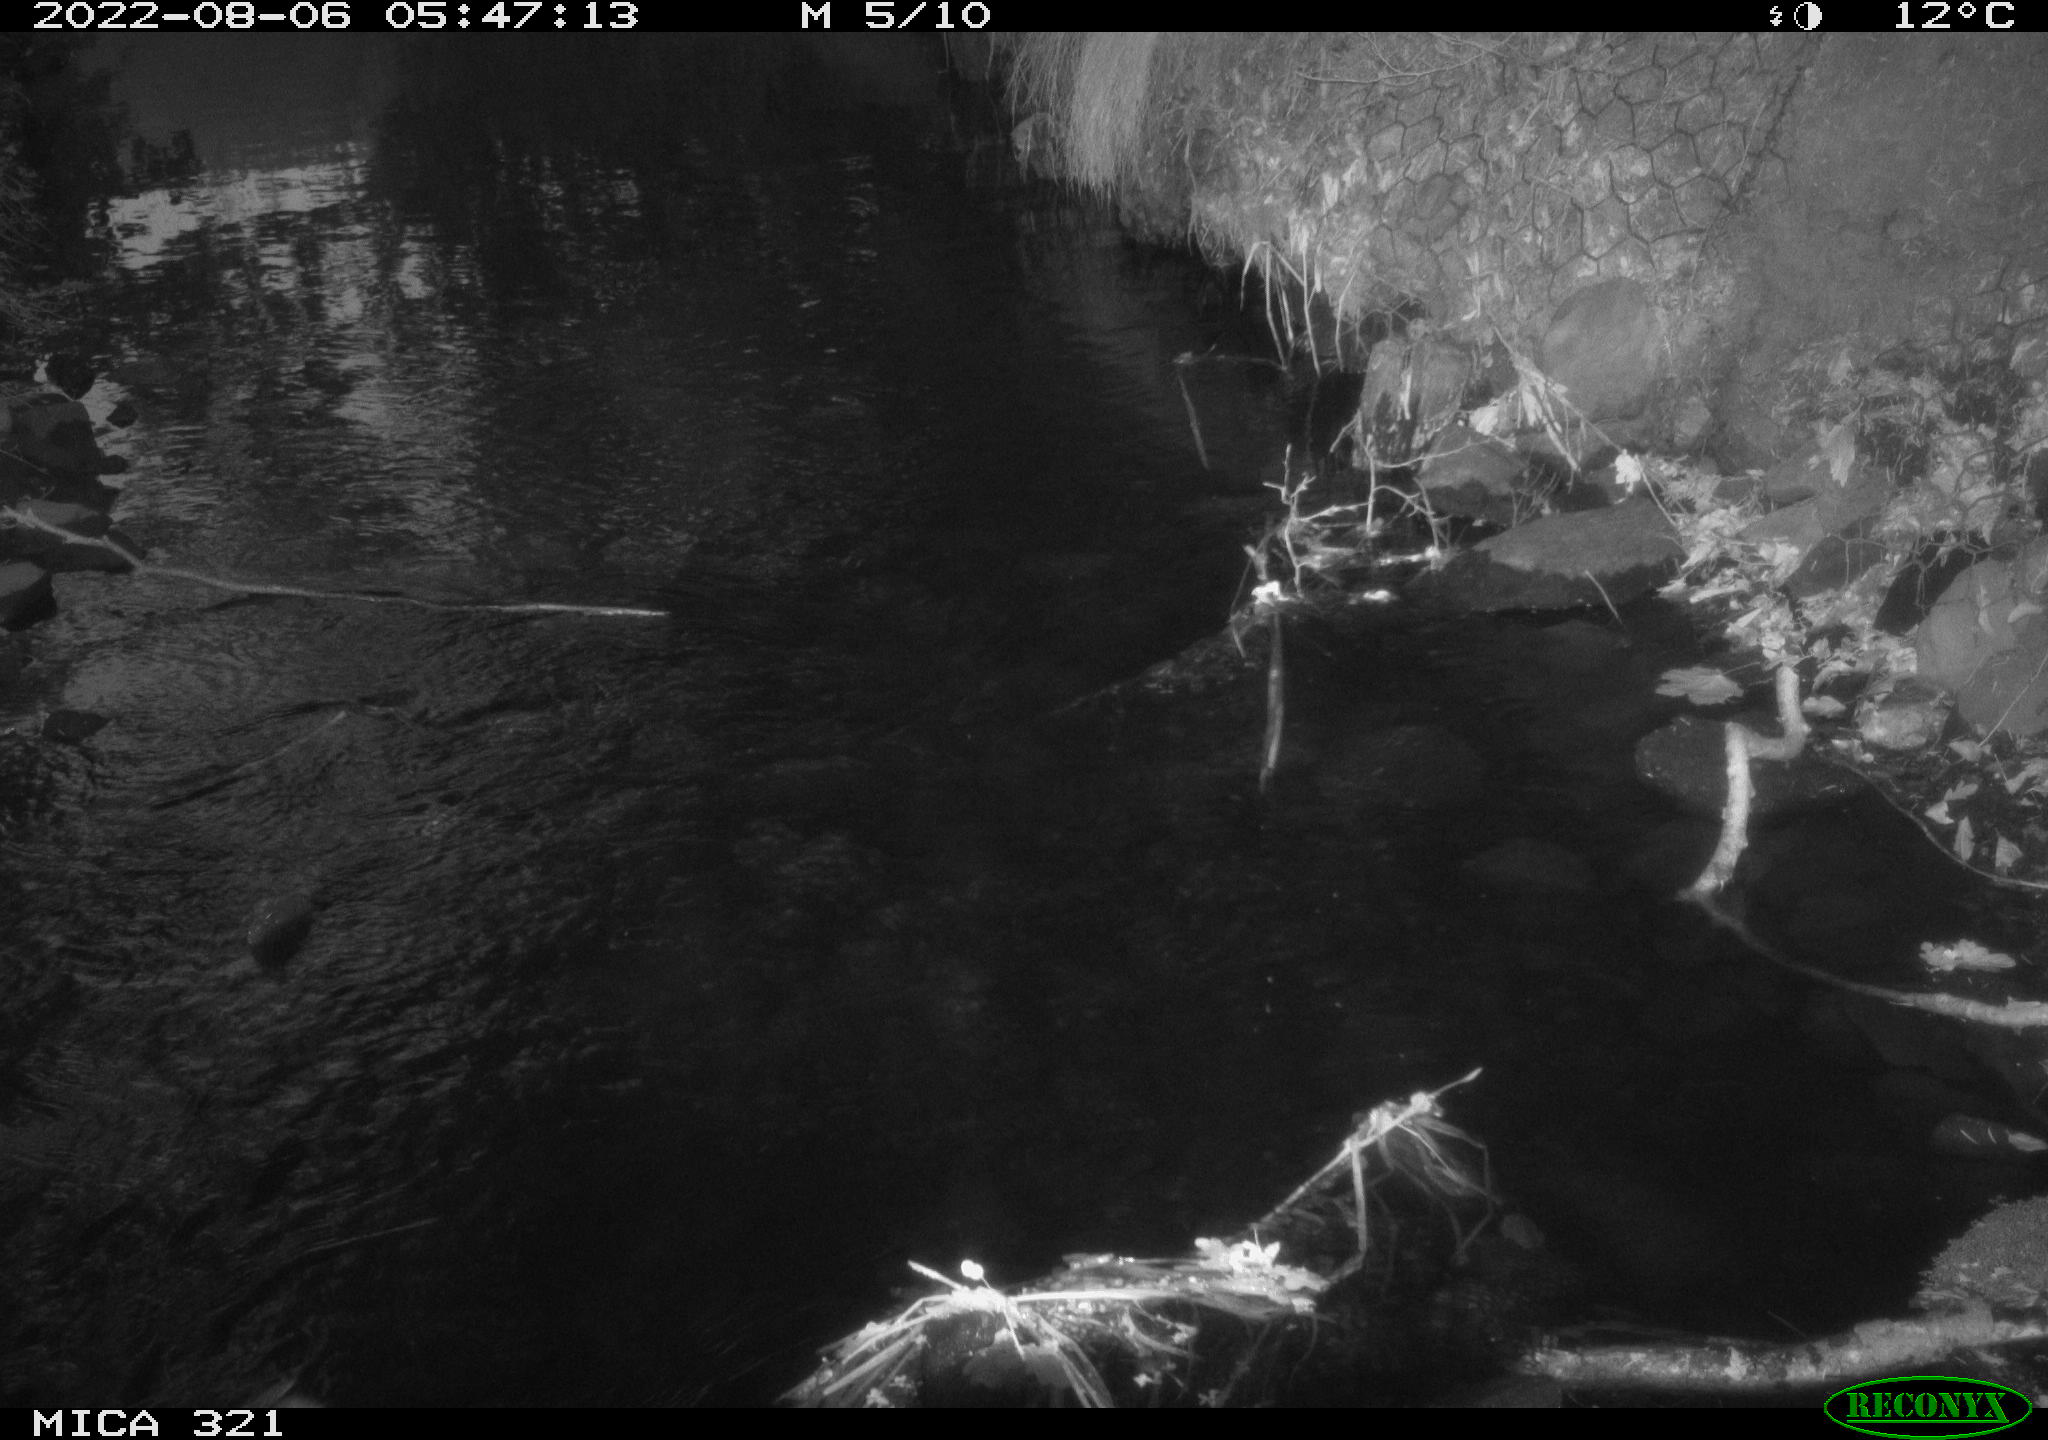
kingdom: Animalia
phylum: Chordata
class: Aves
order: Anseriformes
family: Anatidae
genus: Anas
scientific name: Anas platyrhynchos
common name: Mallard
